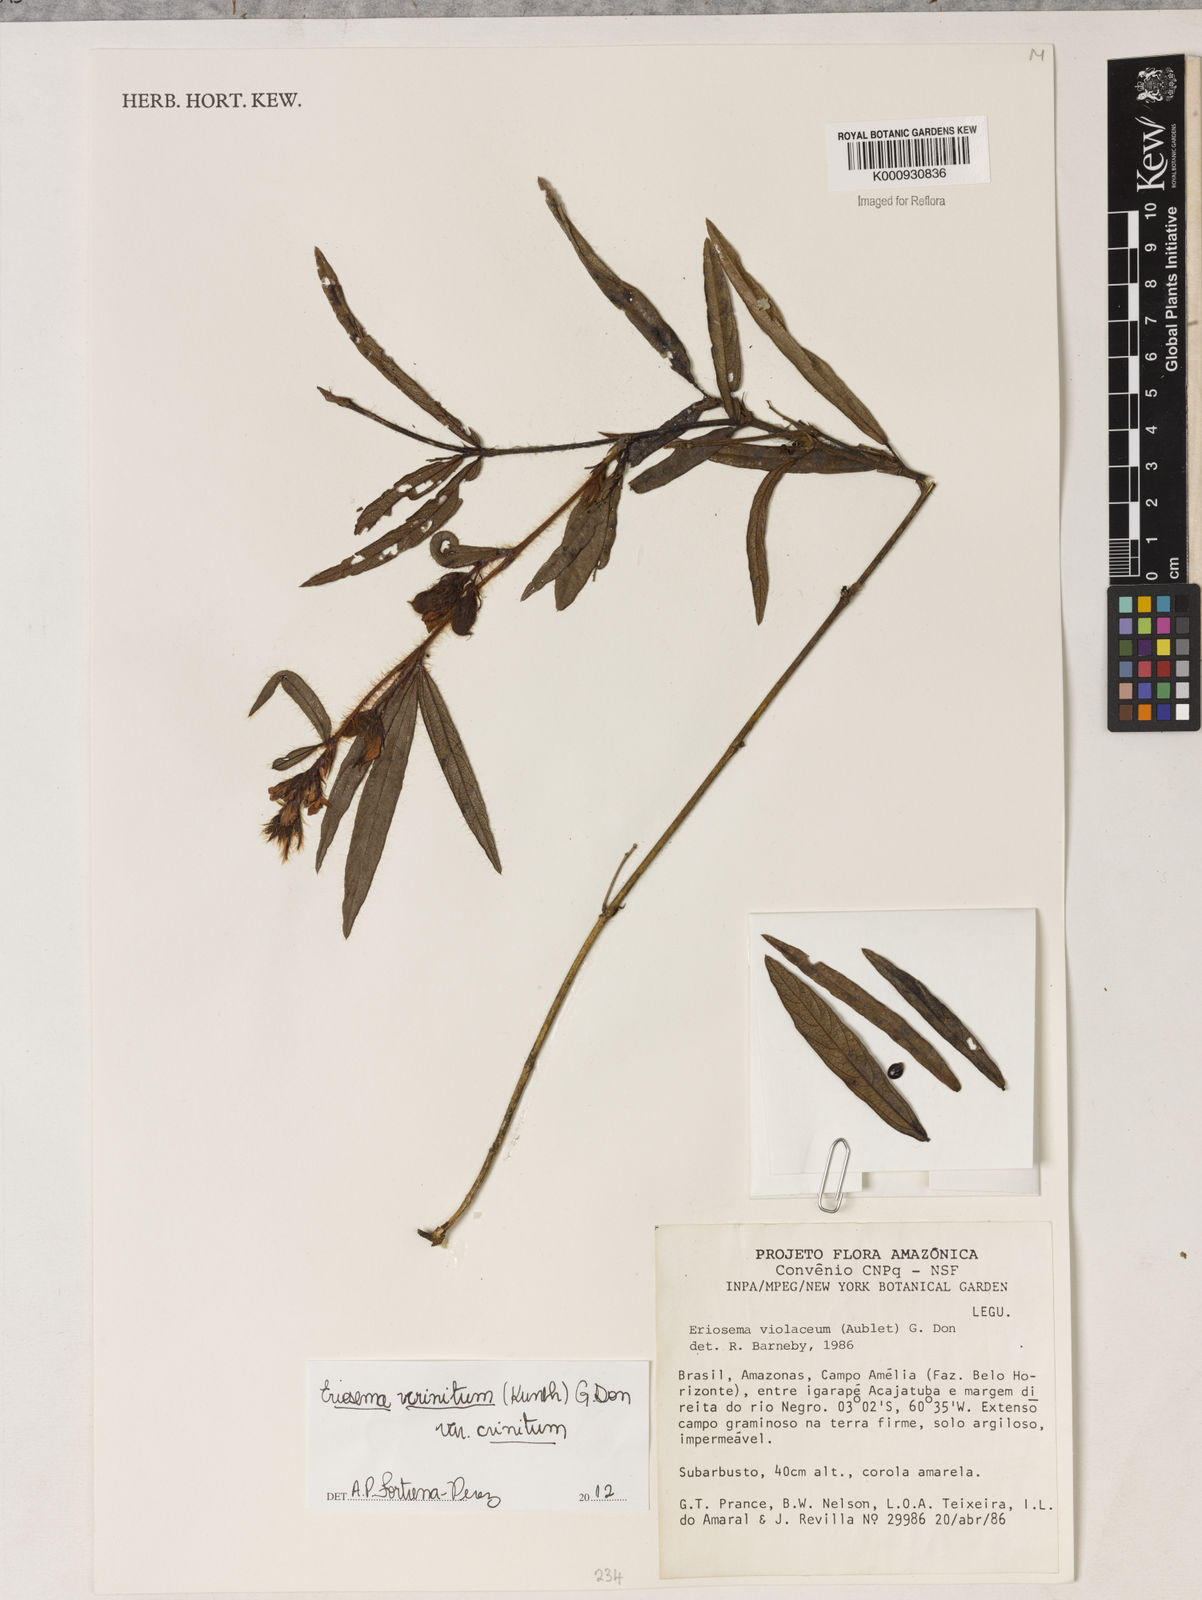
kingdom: Plantae
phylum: Tracheophyta
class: Magnoliopsida
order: Fabales
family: Fabaceae
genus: Eriosema
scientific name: Eriosema crinitum
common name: Sand pea
